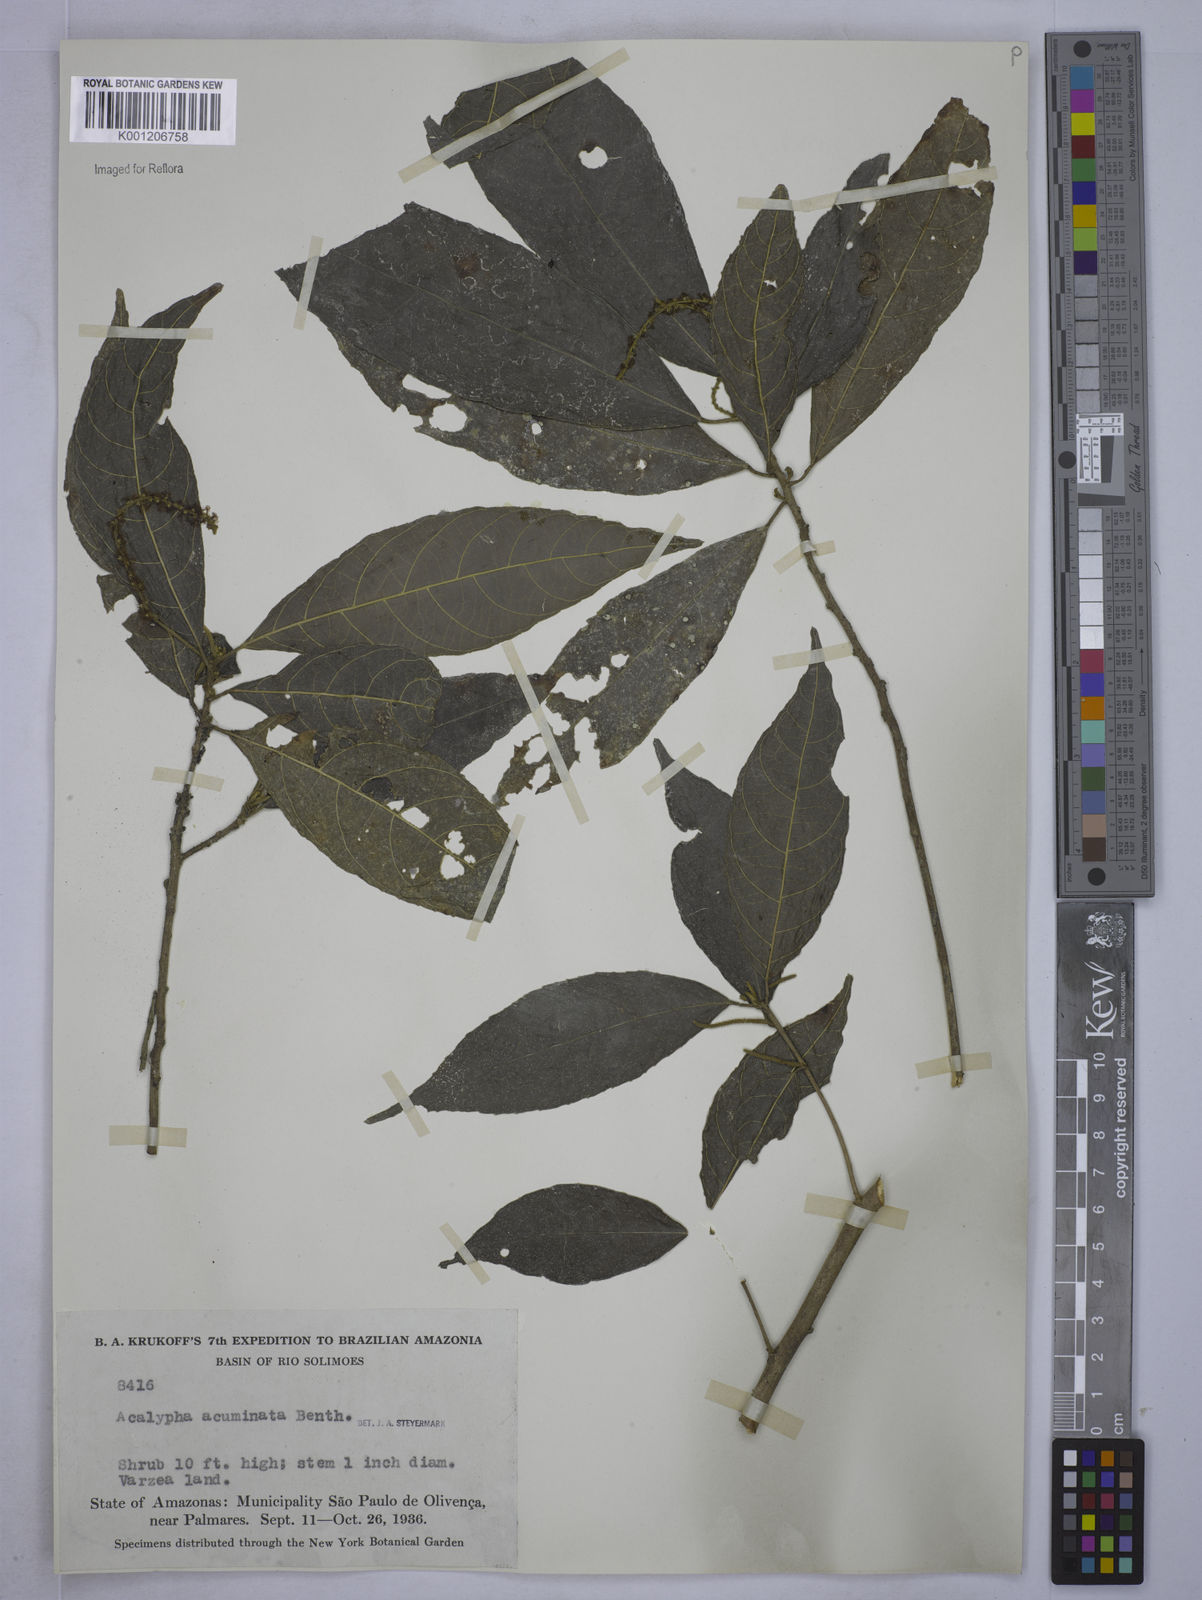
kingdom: Plantae
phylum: Tracheophyta
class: Magnoliopsida
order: Malpighiales
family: Euphorbiaceae
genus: Acalypha
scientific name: Acalypha acuminata
